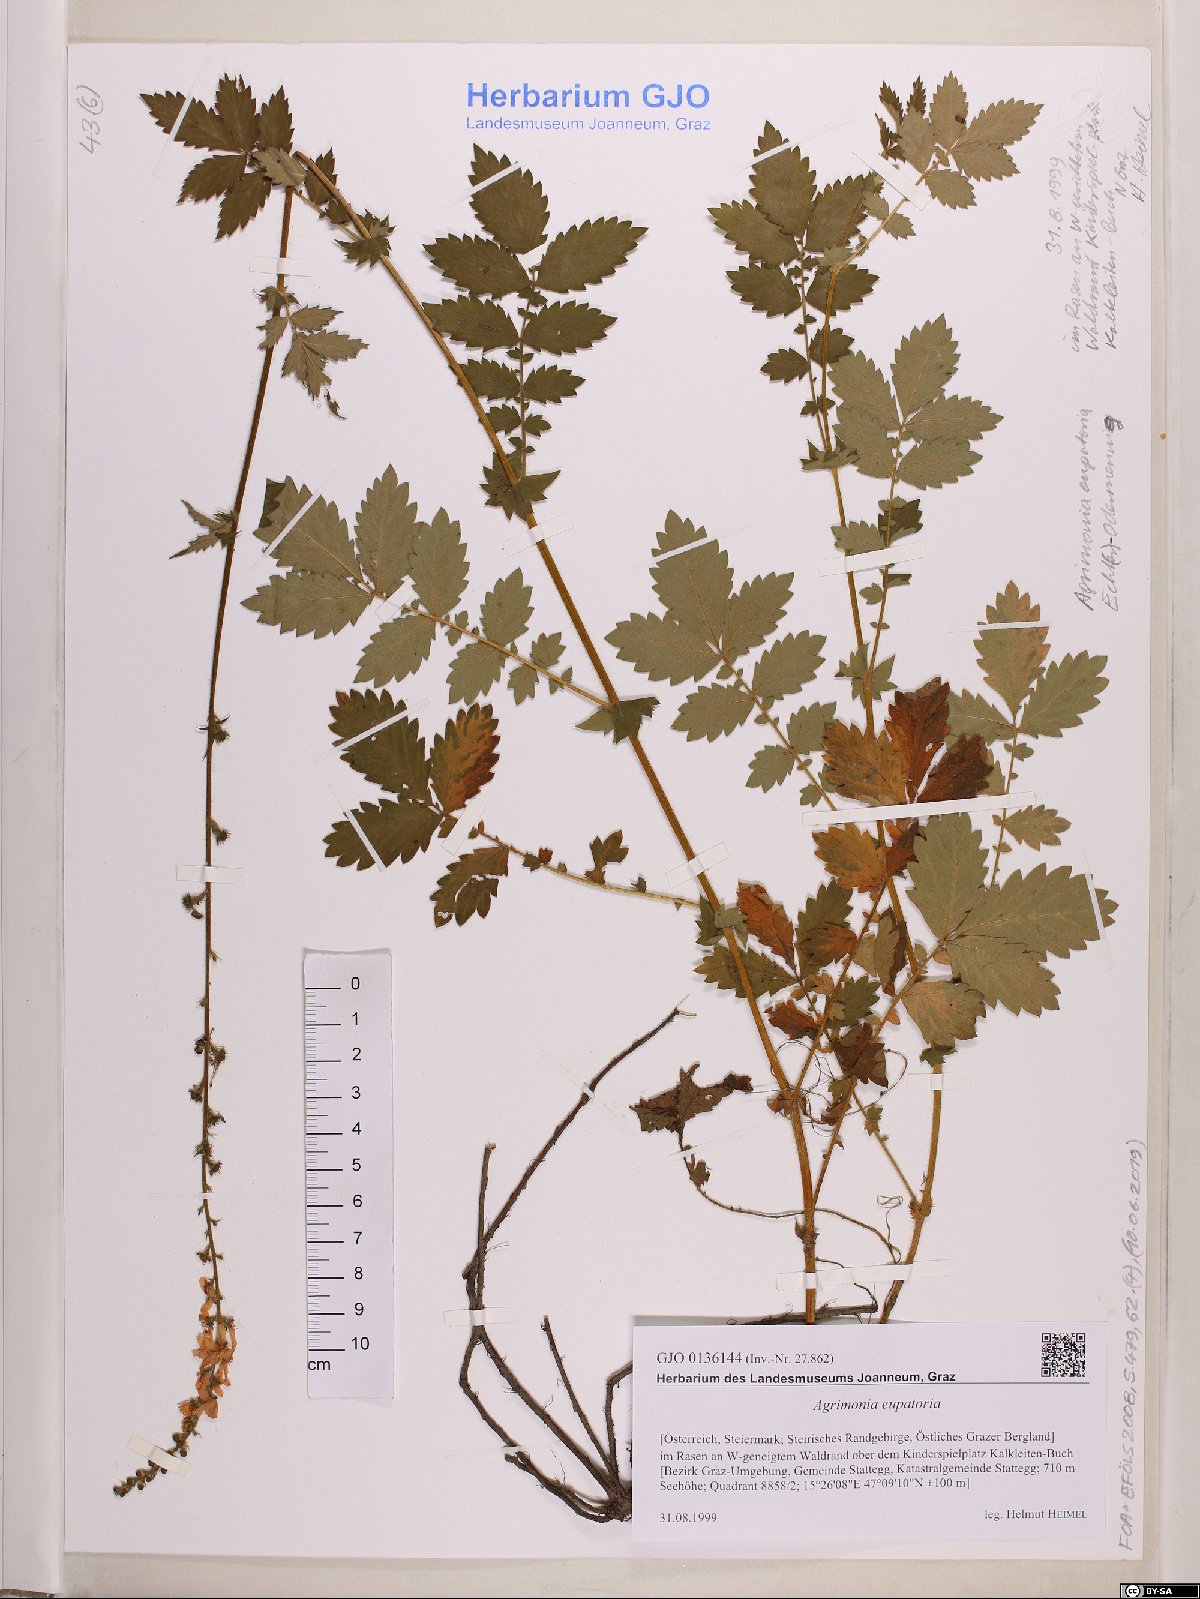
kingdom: Plantae
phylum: Tracheophyta
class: Magnoliopsida
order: Rosales
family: Rosaceae
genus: Agrimonia
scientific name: Agrimonia eupatoria
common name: Agrimony
